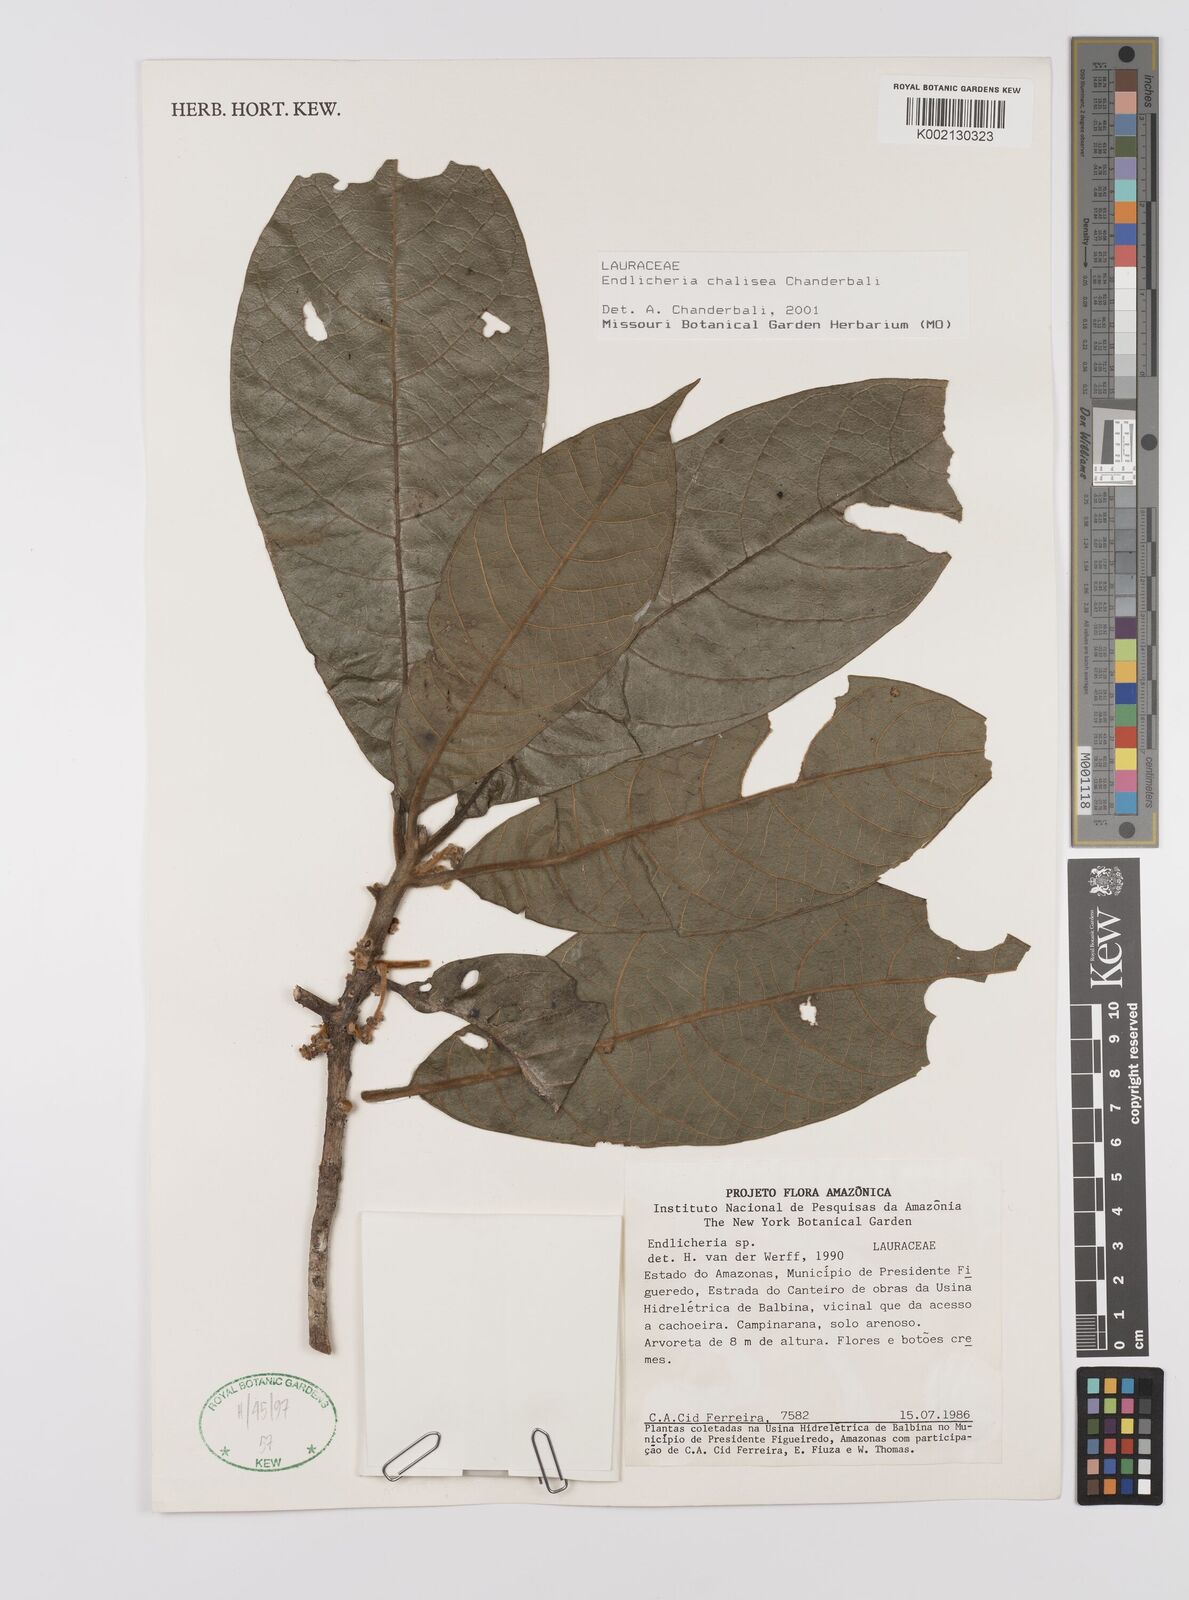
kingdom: Plantae
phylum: Tracheophyta
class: Magnoliopsida
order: Laurales
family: Lauraceae
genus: Endlicheria
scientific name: Endlicheria chalisea
